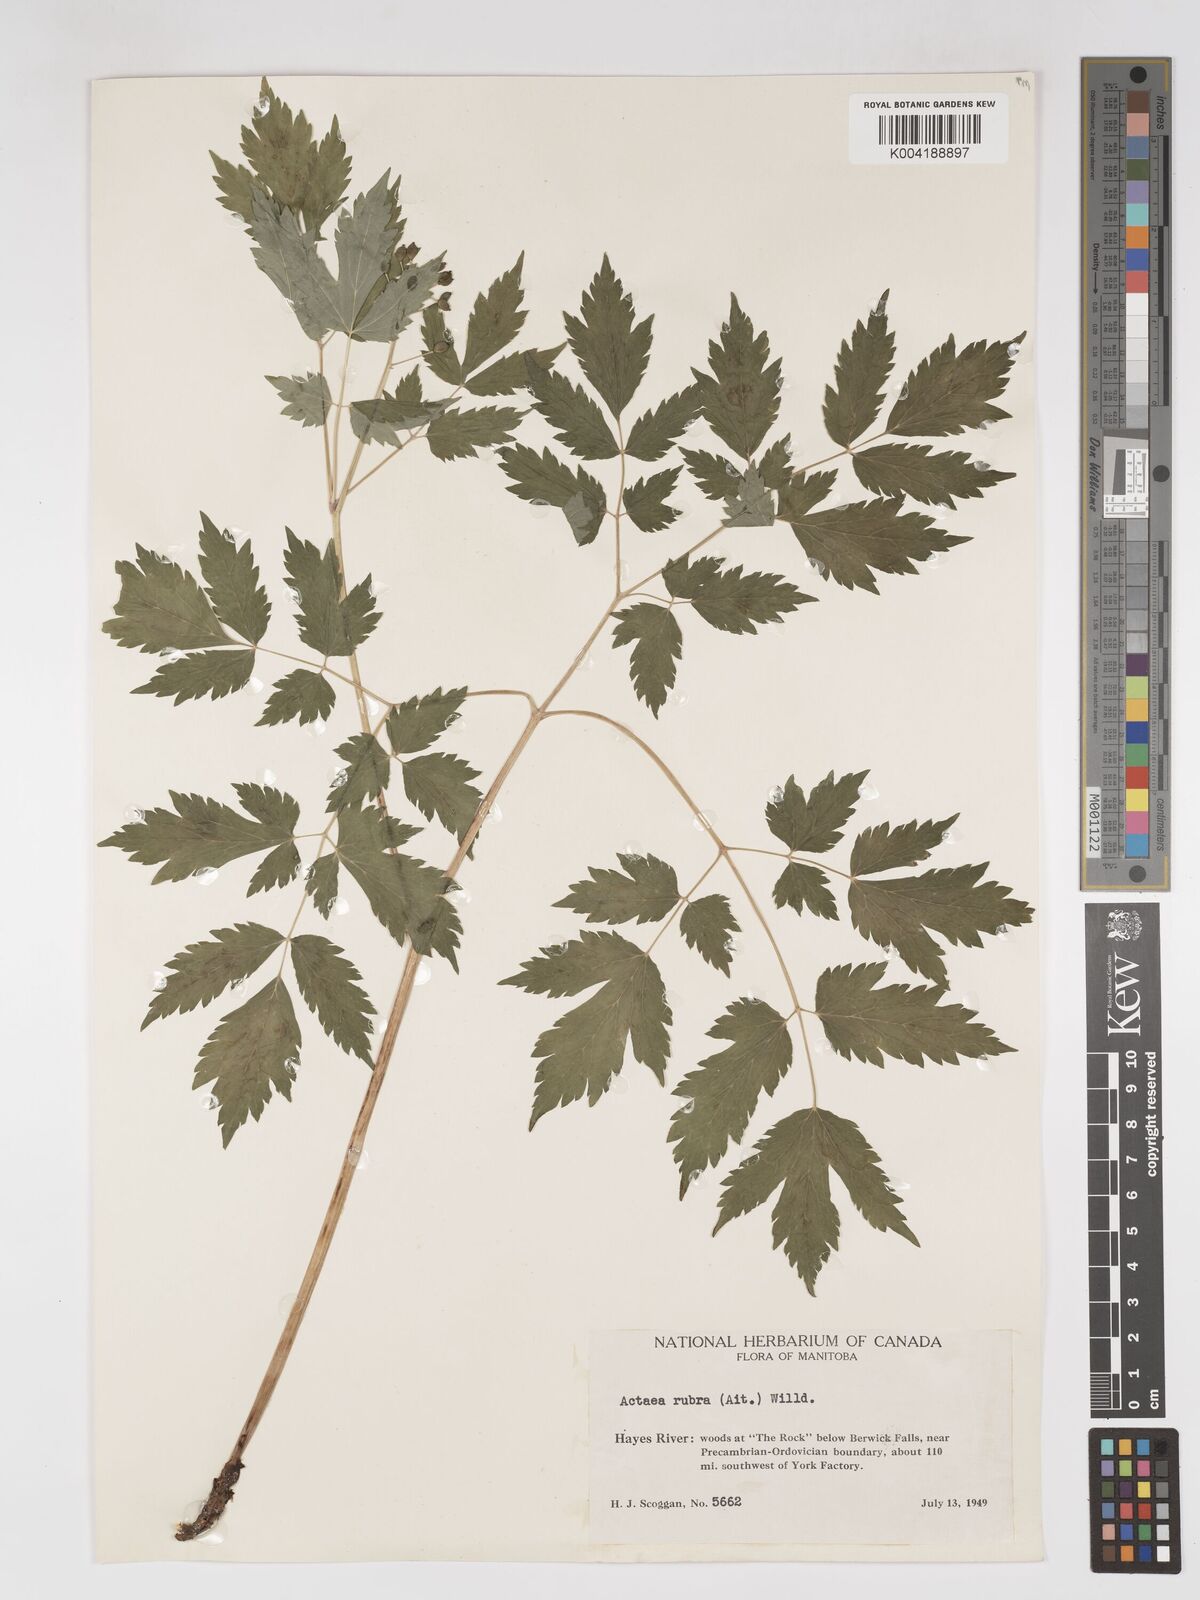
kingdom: Plantae
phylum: Tracheophyta
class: Magnoliopsida
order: Ranunculales
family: Ranunculaceae
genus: Actaea
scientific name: Actaea spicata
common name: Baneberry
